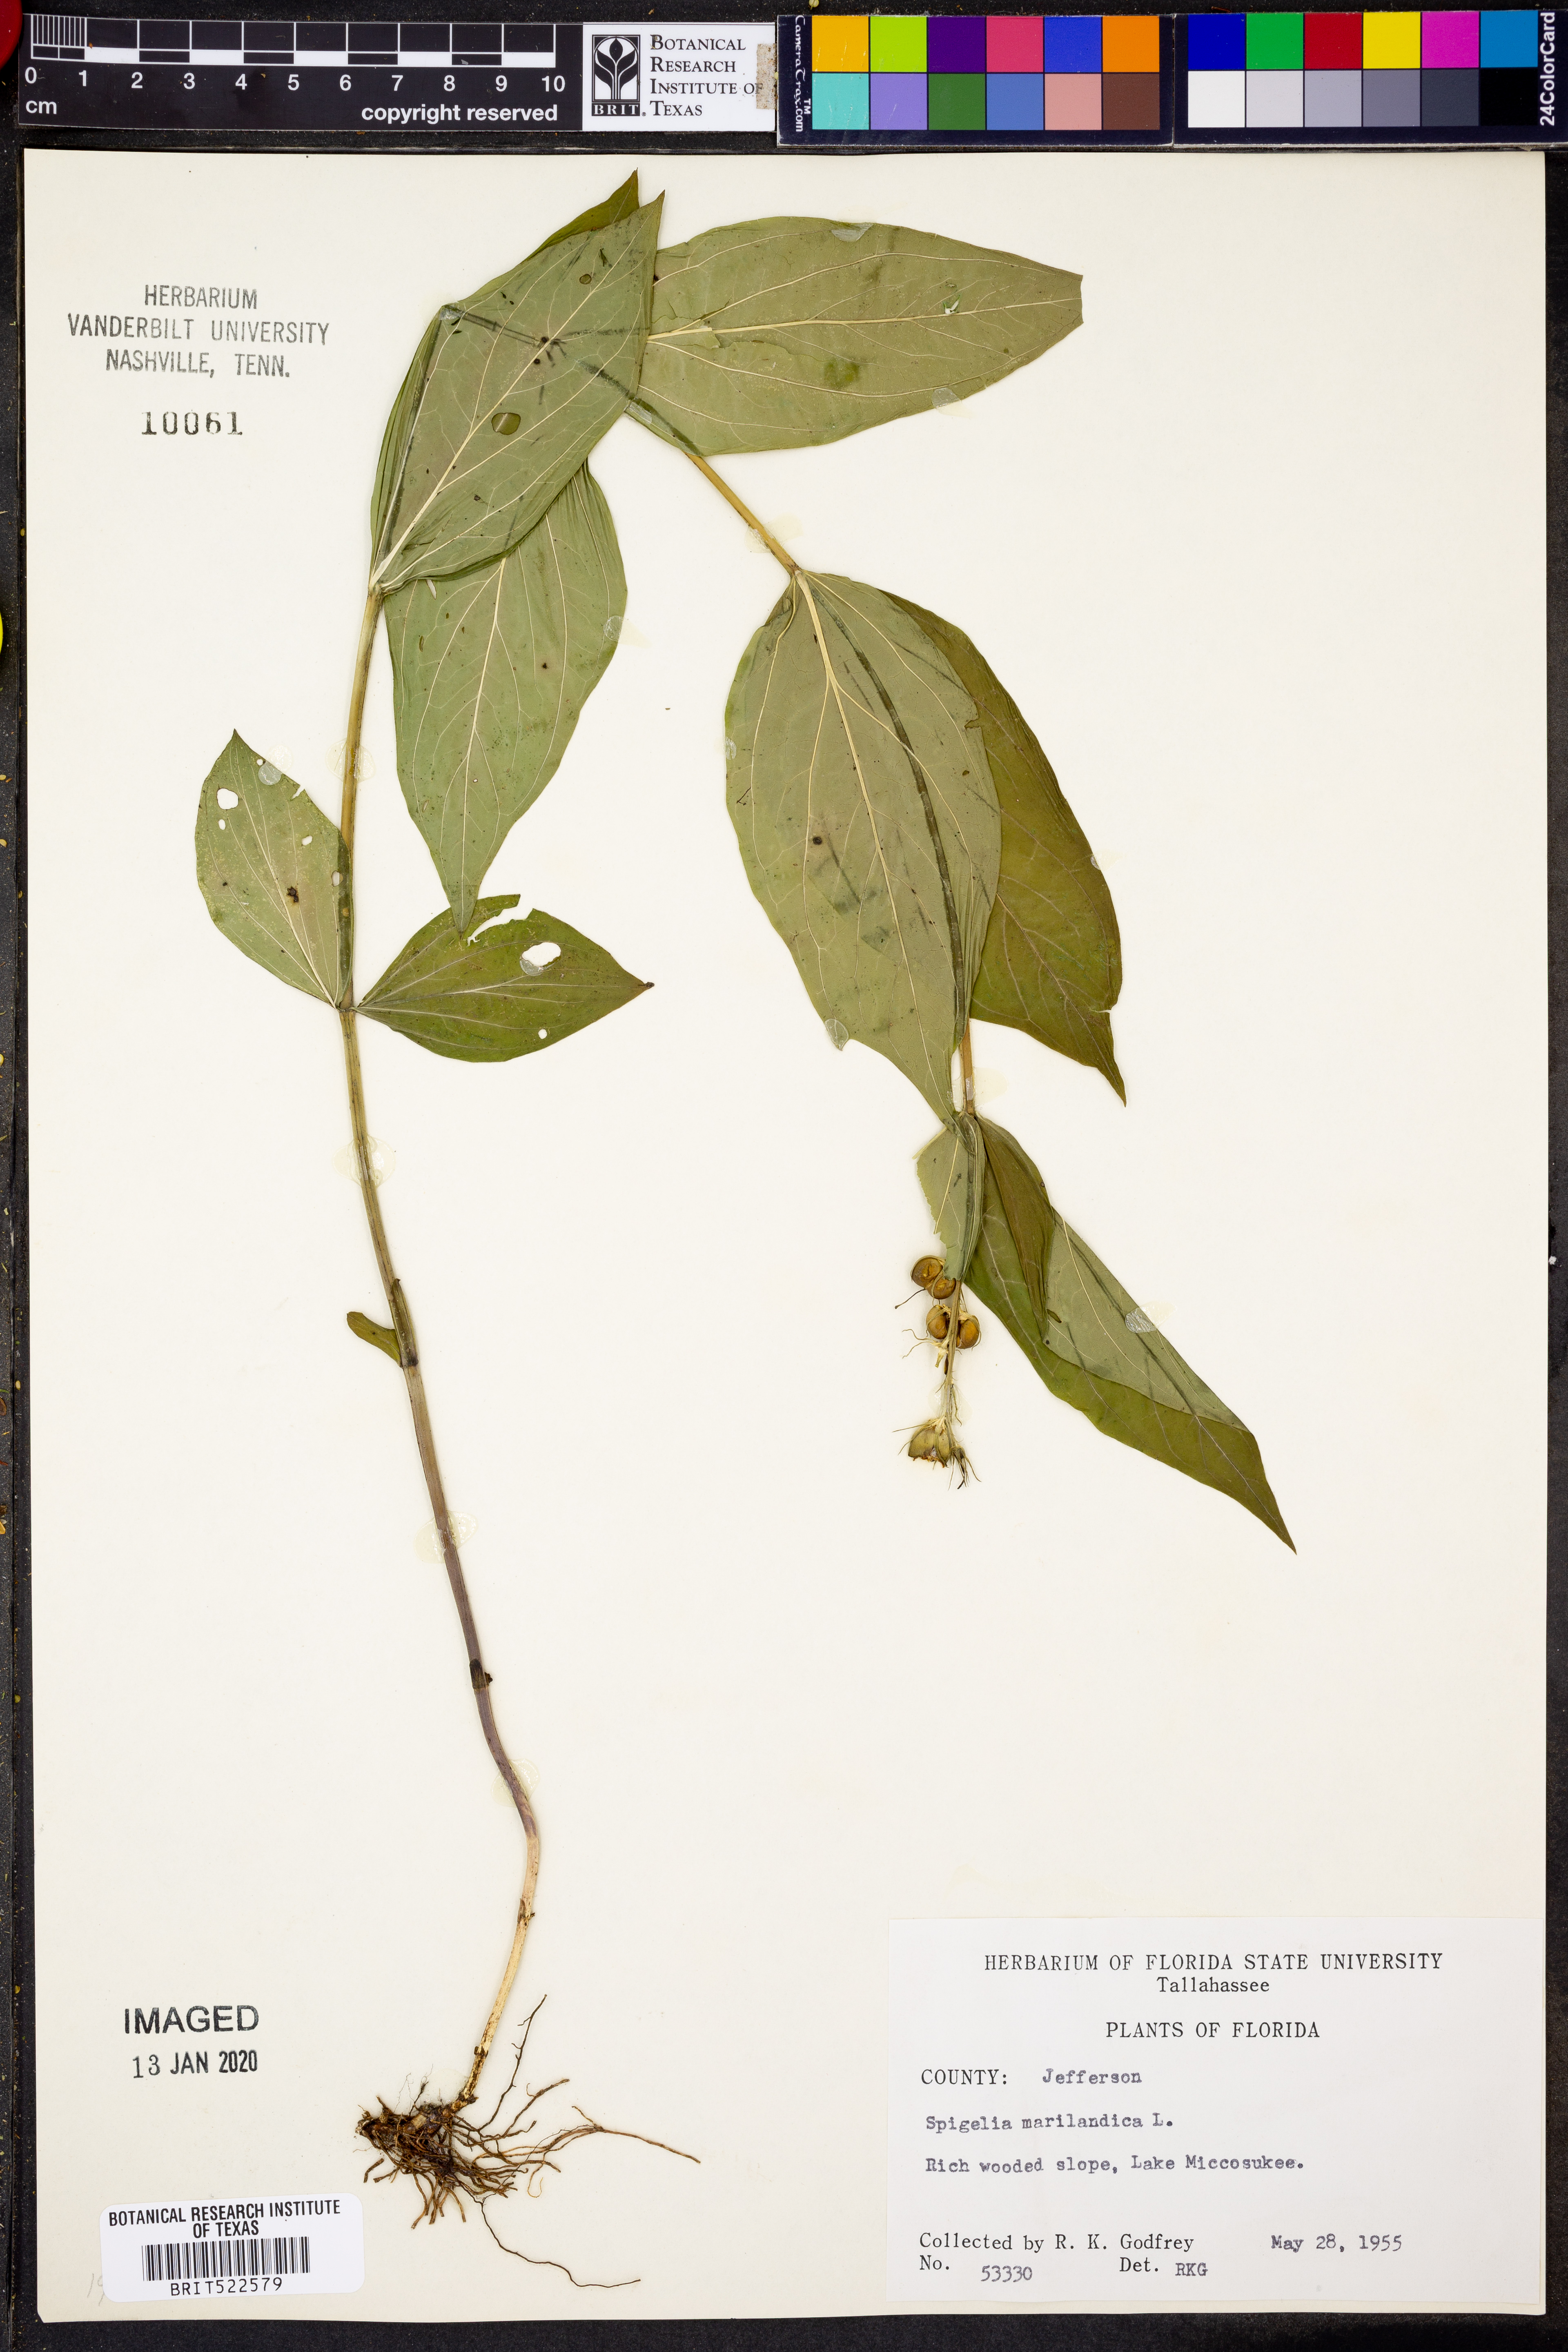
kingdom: Plantae
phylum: Tracheophyta
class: Magnoliopsida
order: Gentianales
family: Loganiaceae
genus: Spigelia
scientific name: Spigelia marilandica
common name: Indian-pink
